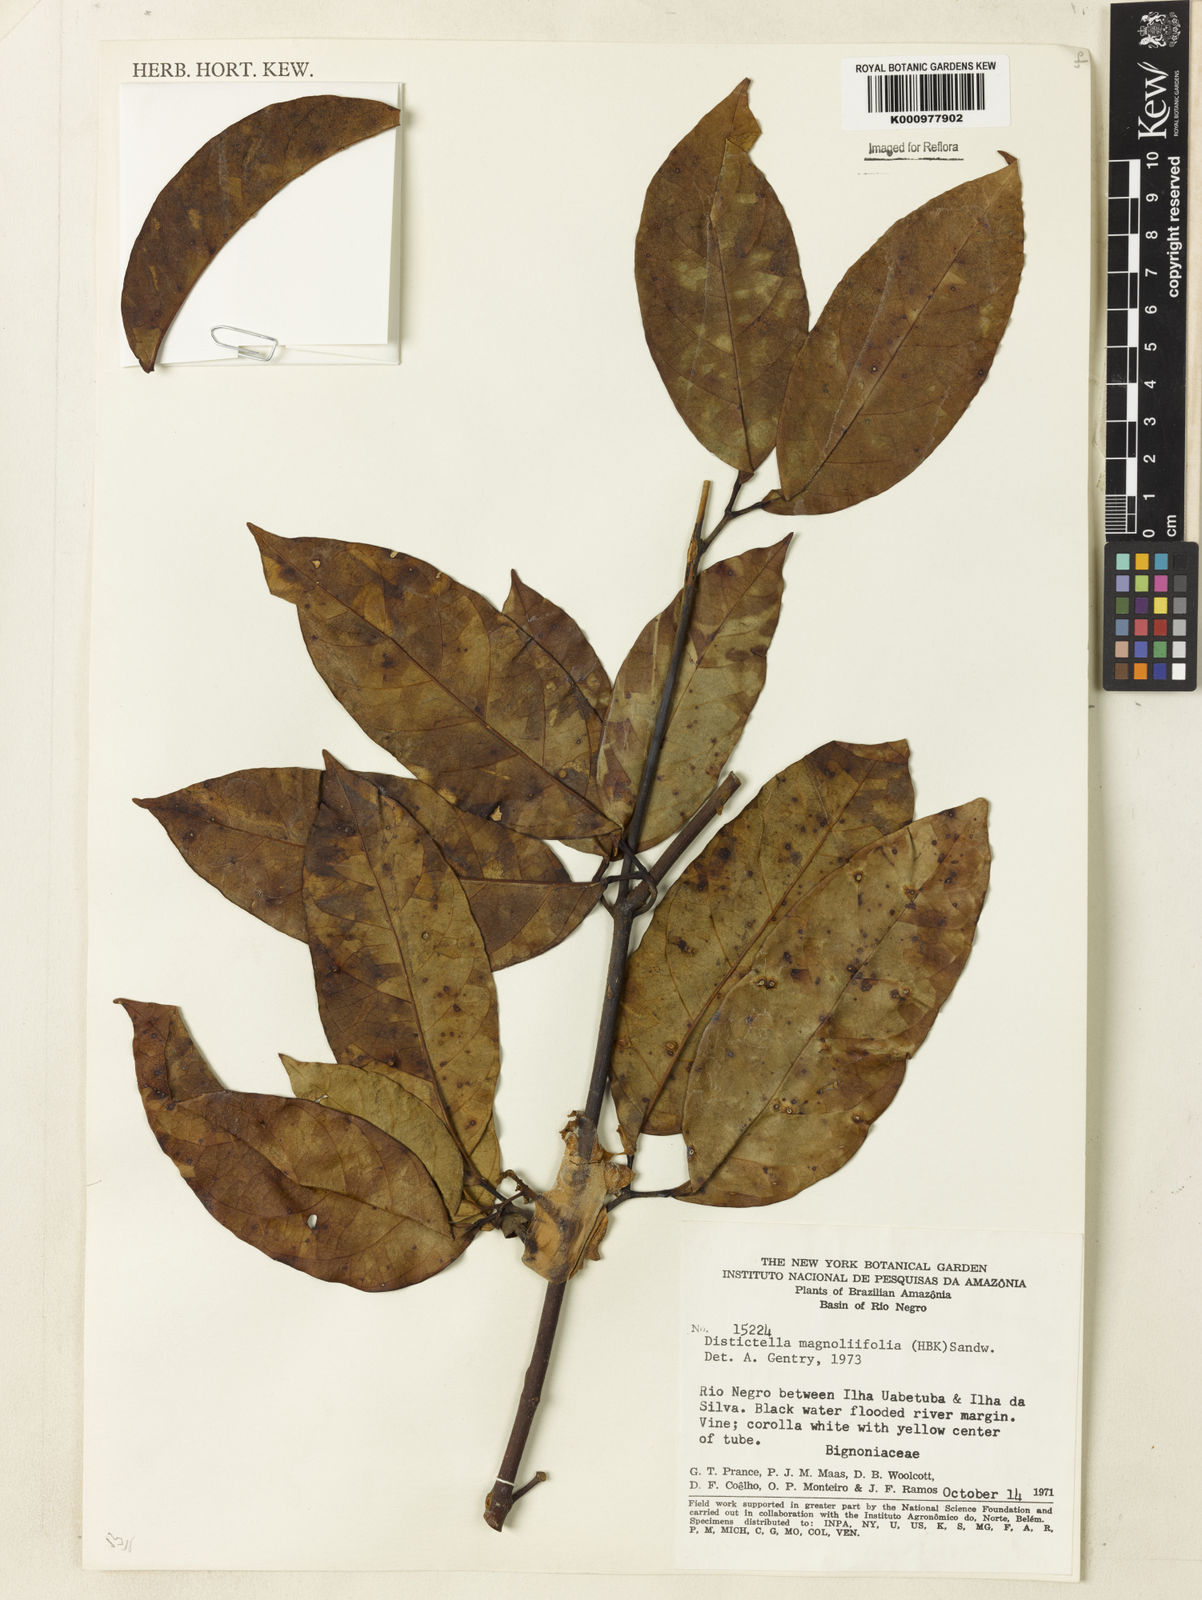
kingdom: Plantae
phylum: Tracheophyta
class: Magnoliopsida
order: Lamiales
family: Bignoniaceae
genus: Amphilophium
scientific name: Amphilophium
